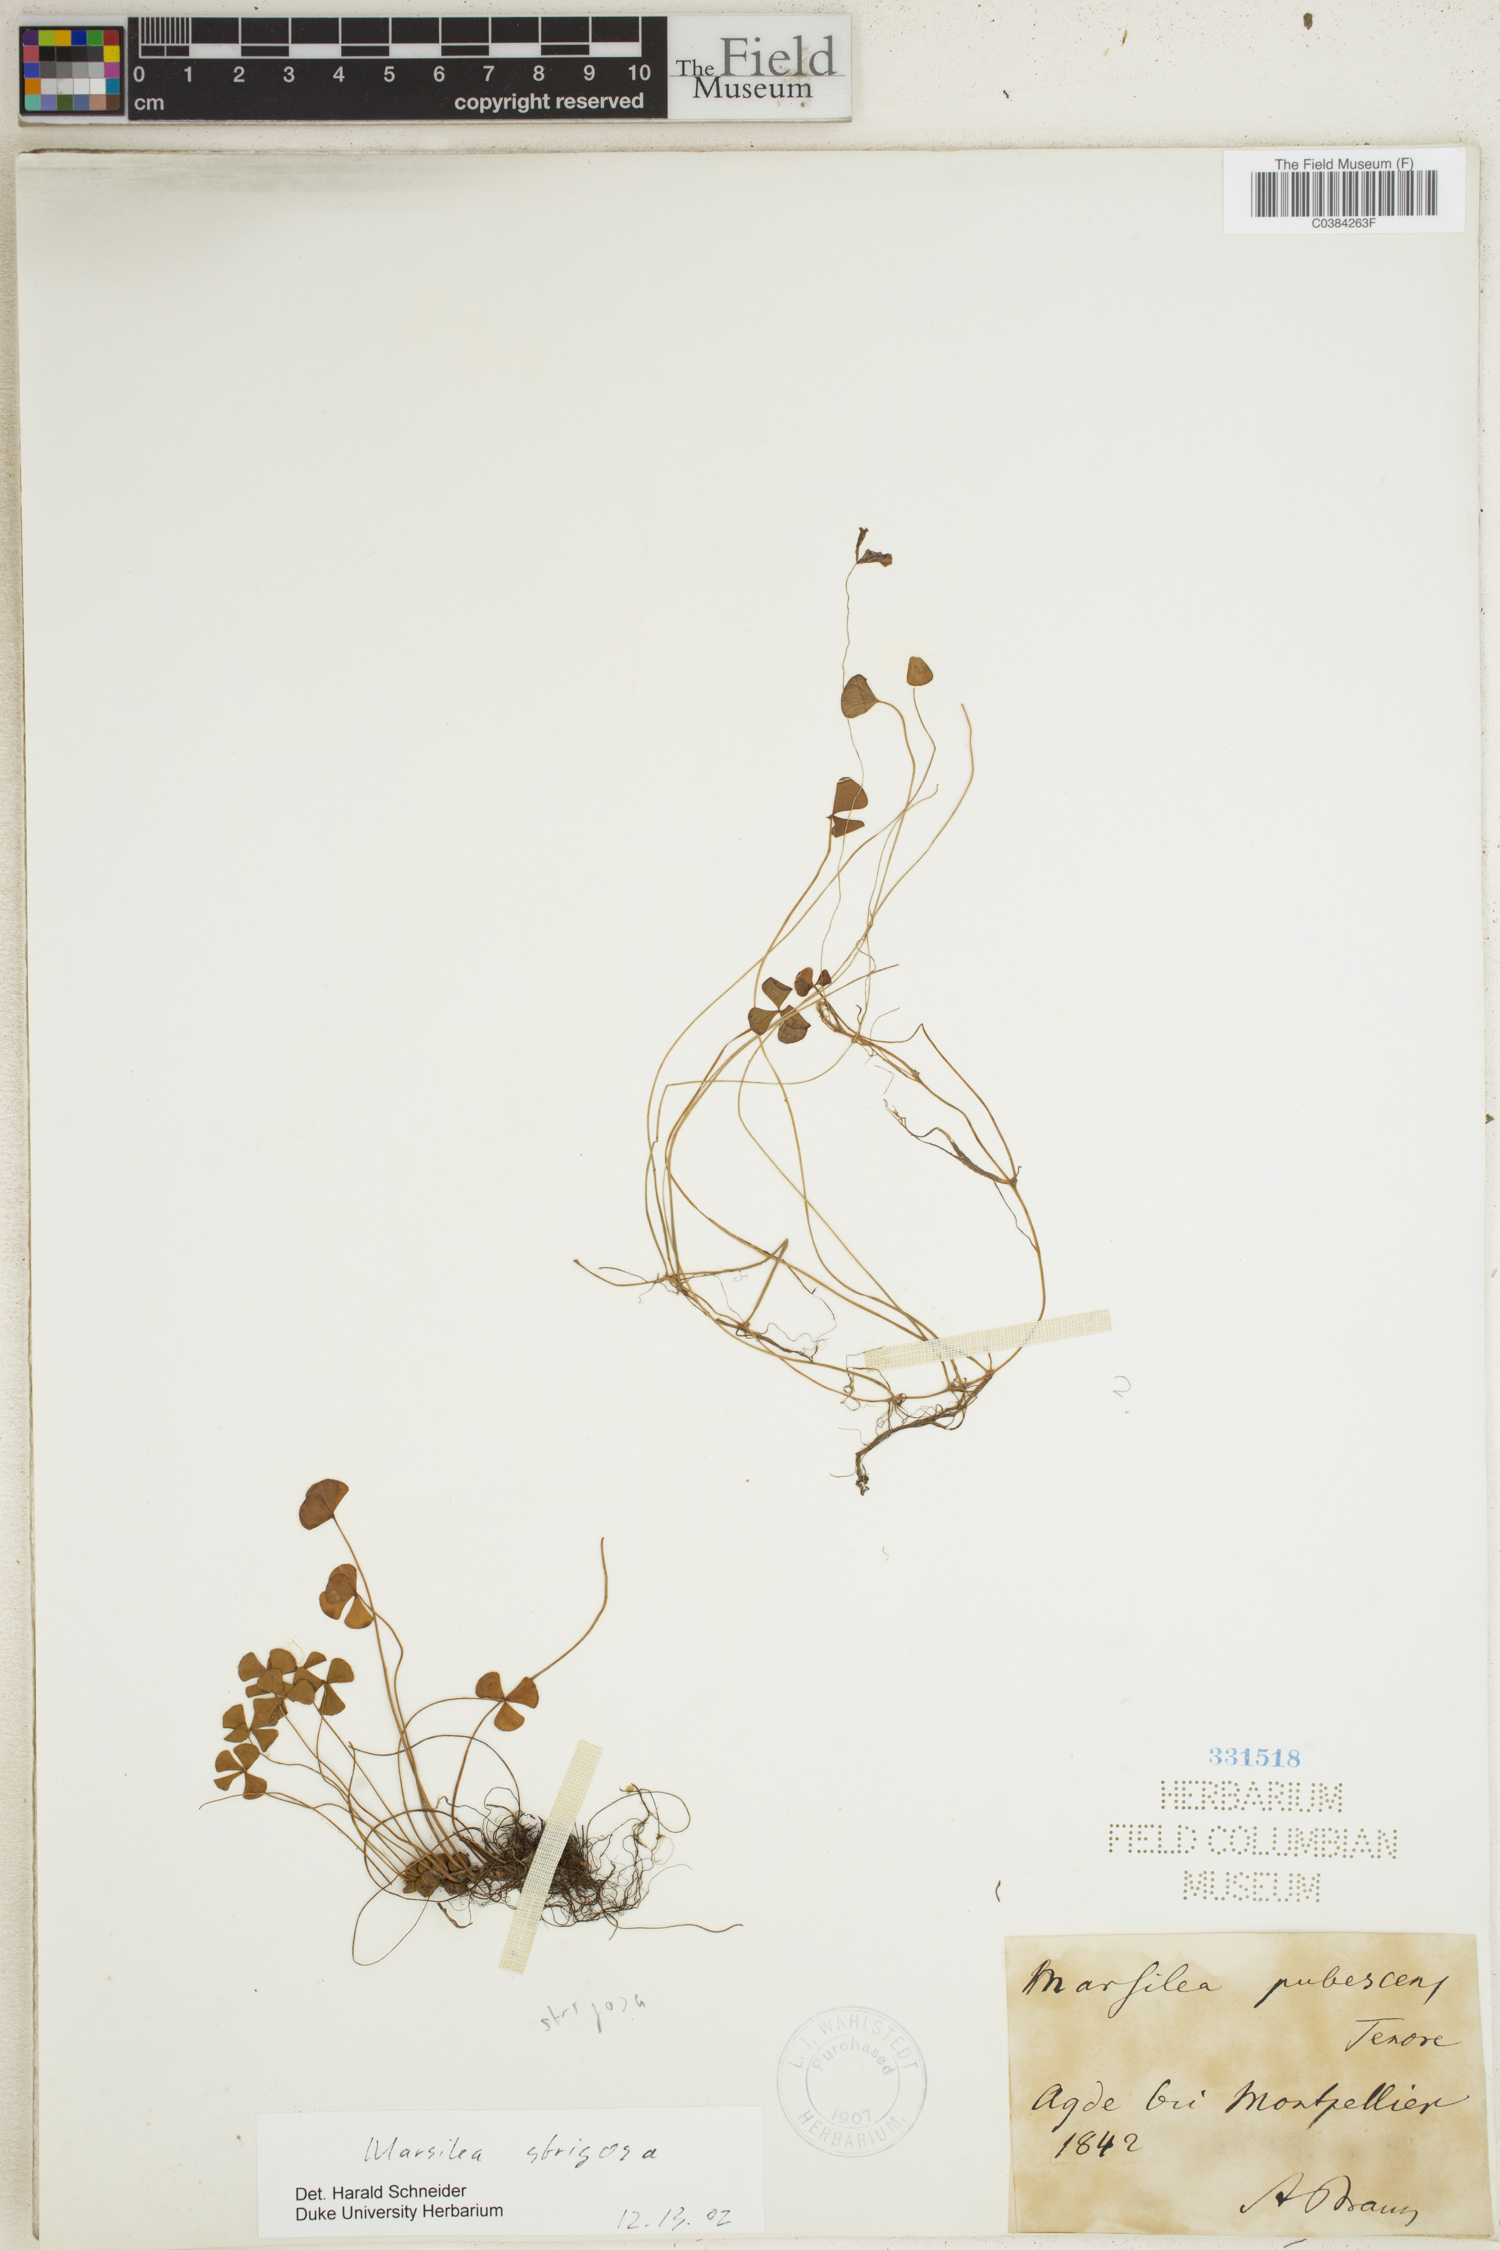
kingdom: Plantae
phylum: Tracheophyta
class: Polypodiopsida
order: Salviniales
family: Marsileaceae
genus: Marsilea
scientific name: Marsilea drummondii
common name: Nardoo
